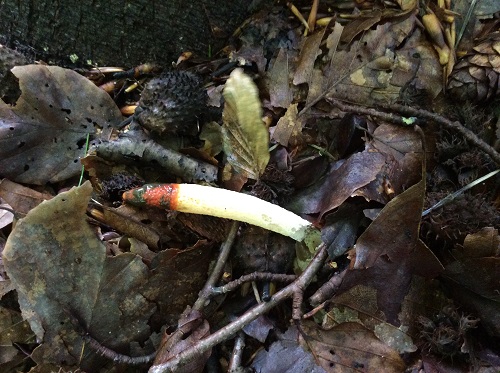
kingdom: Fungi
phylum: Basidiomycota
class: Agaricomycetes
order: Phallales
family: Phallaceae
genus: Mutinus
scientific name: Mutinus caninus
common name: hunde-stinksvamp
